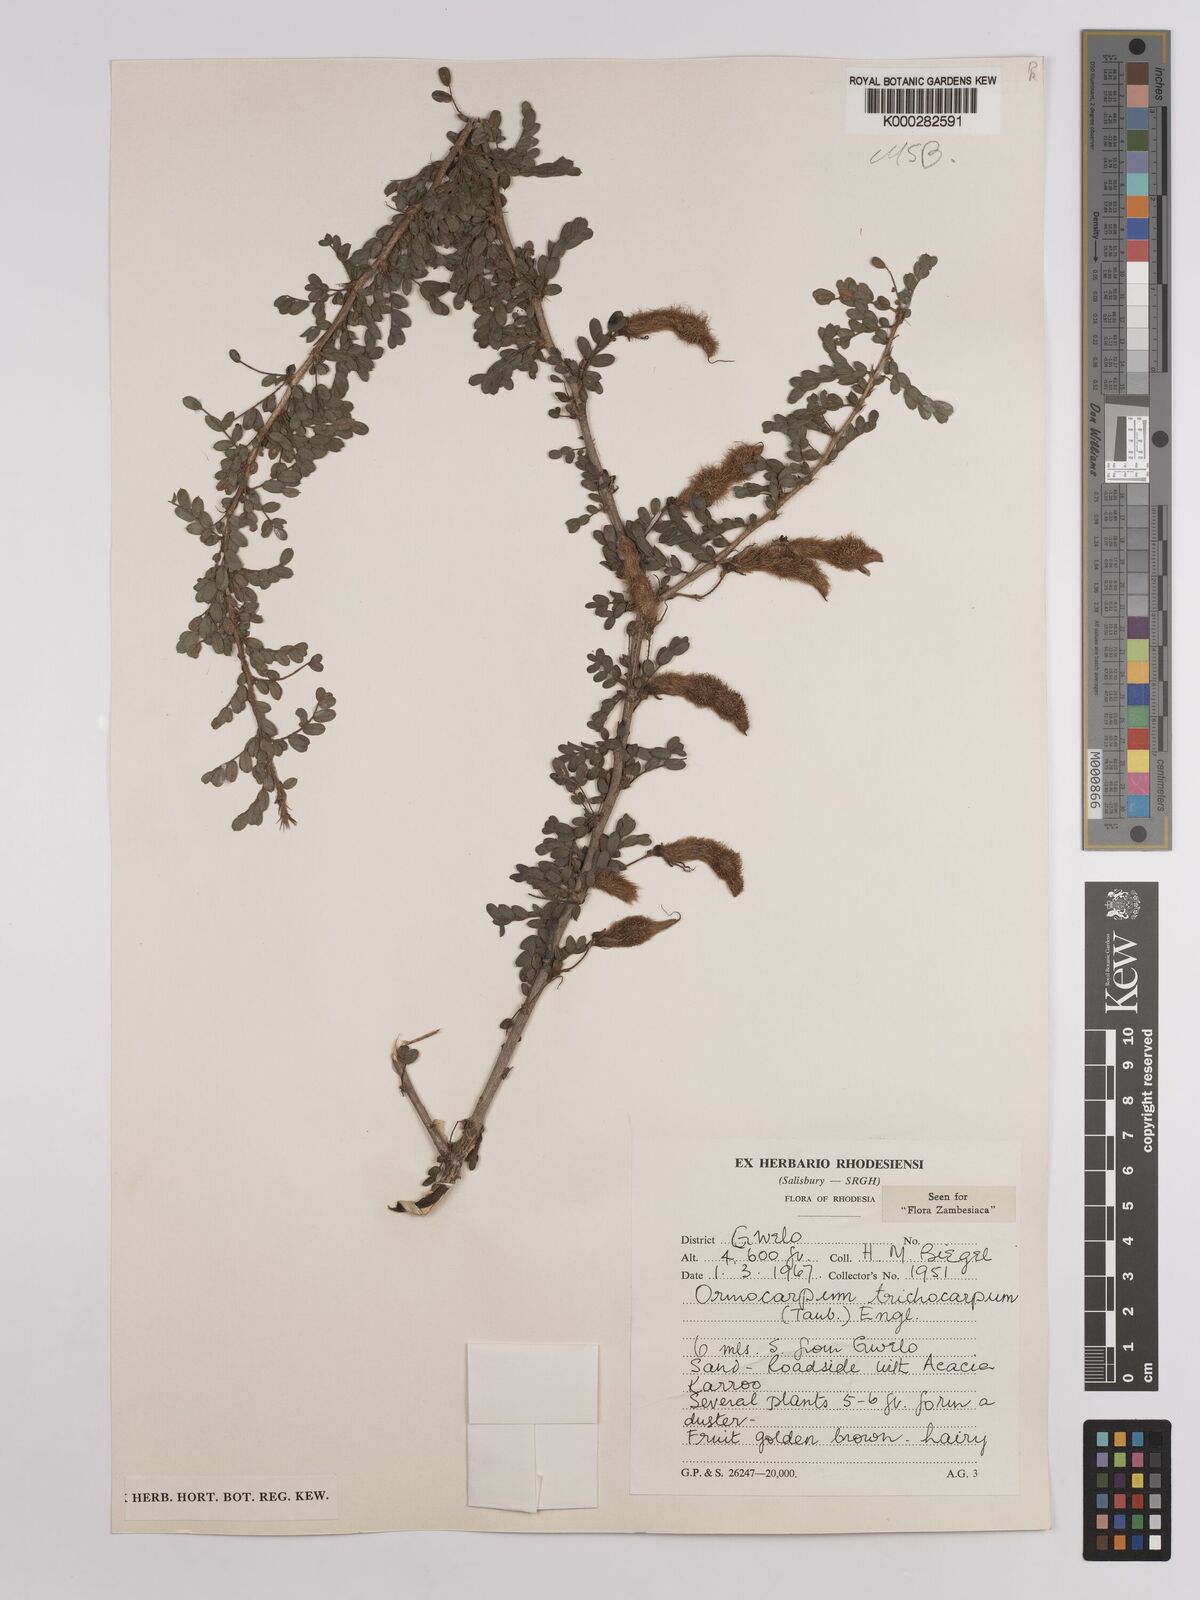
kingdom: Plantae
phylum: Tracheophyta
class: Magnoliopsida
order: Fabales
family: Fabaceae
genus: Ormocarpum
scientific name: Ormocarpum trichocarpum
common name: Caterpillar bush
